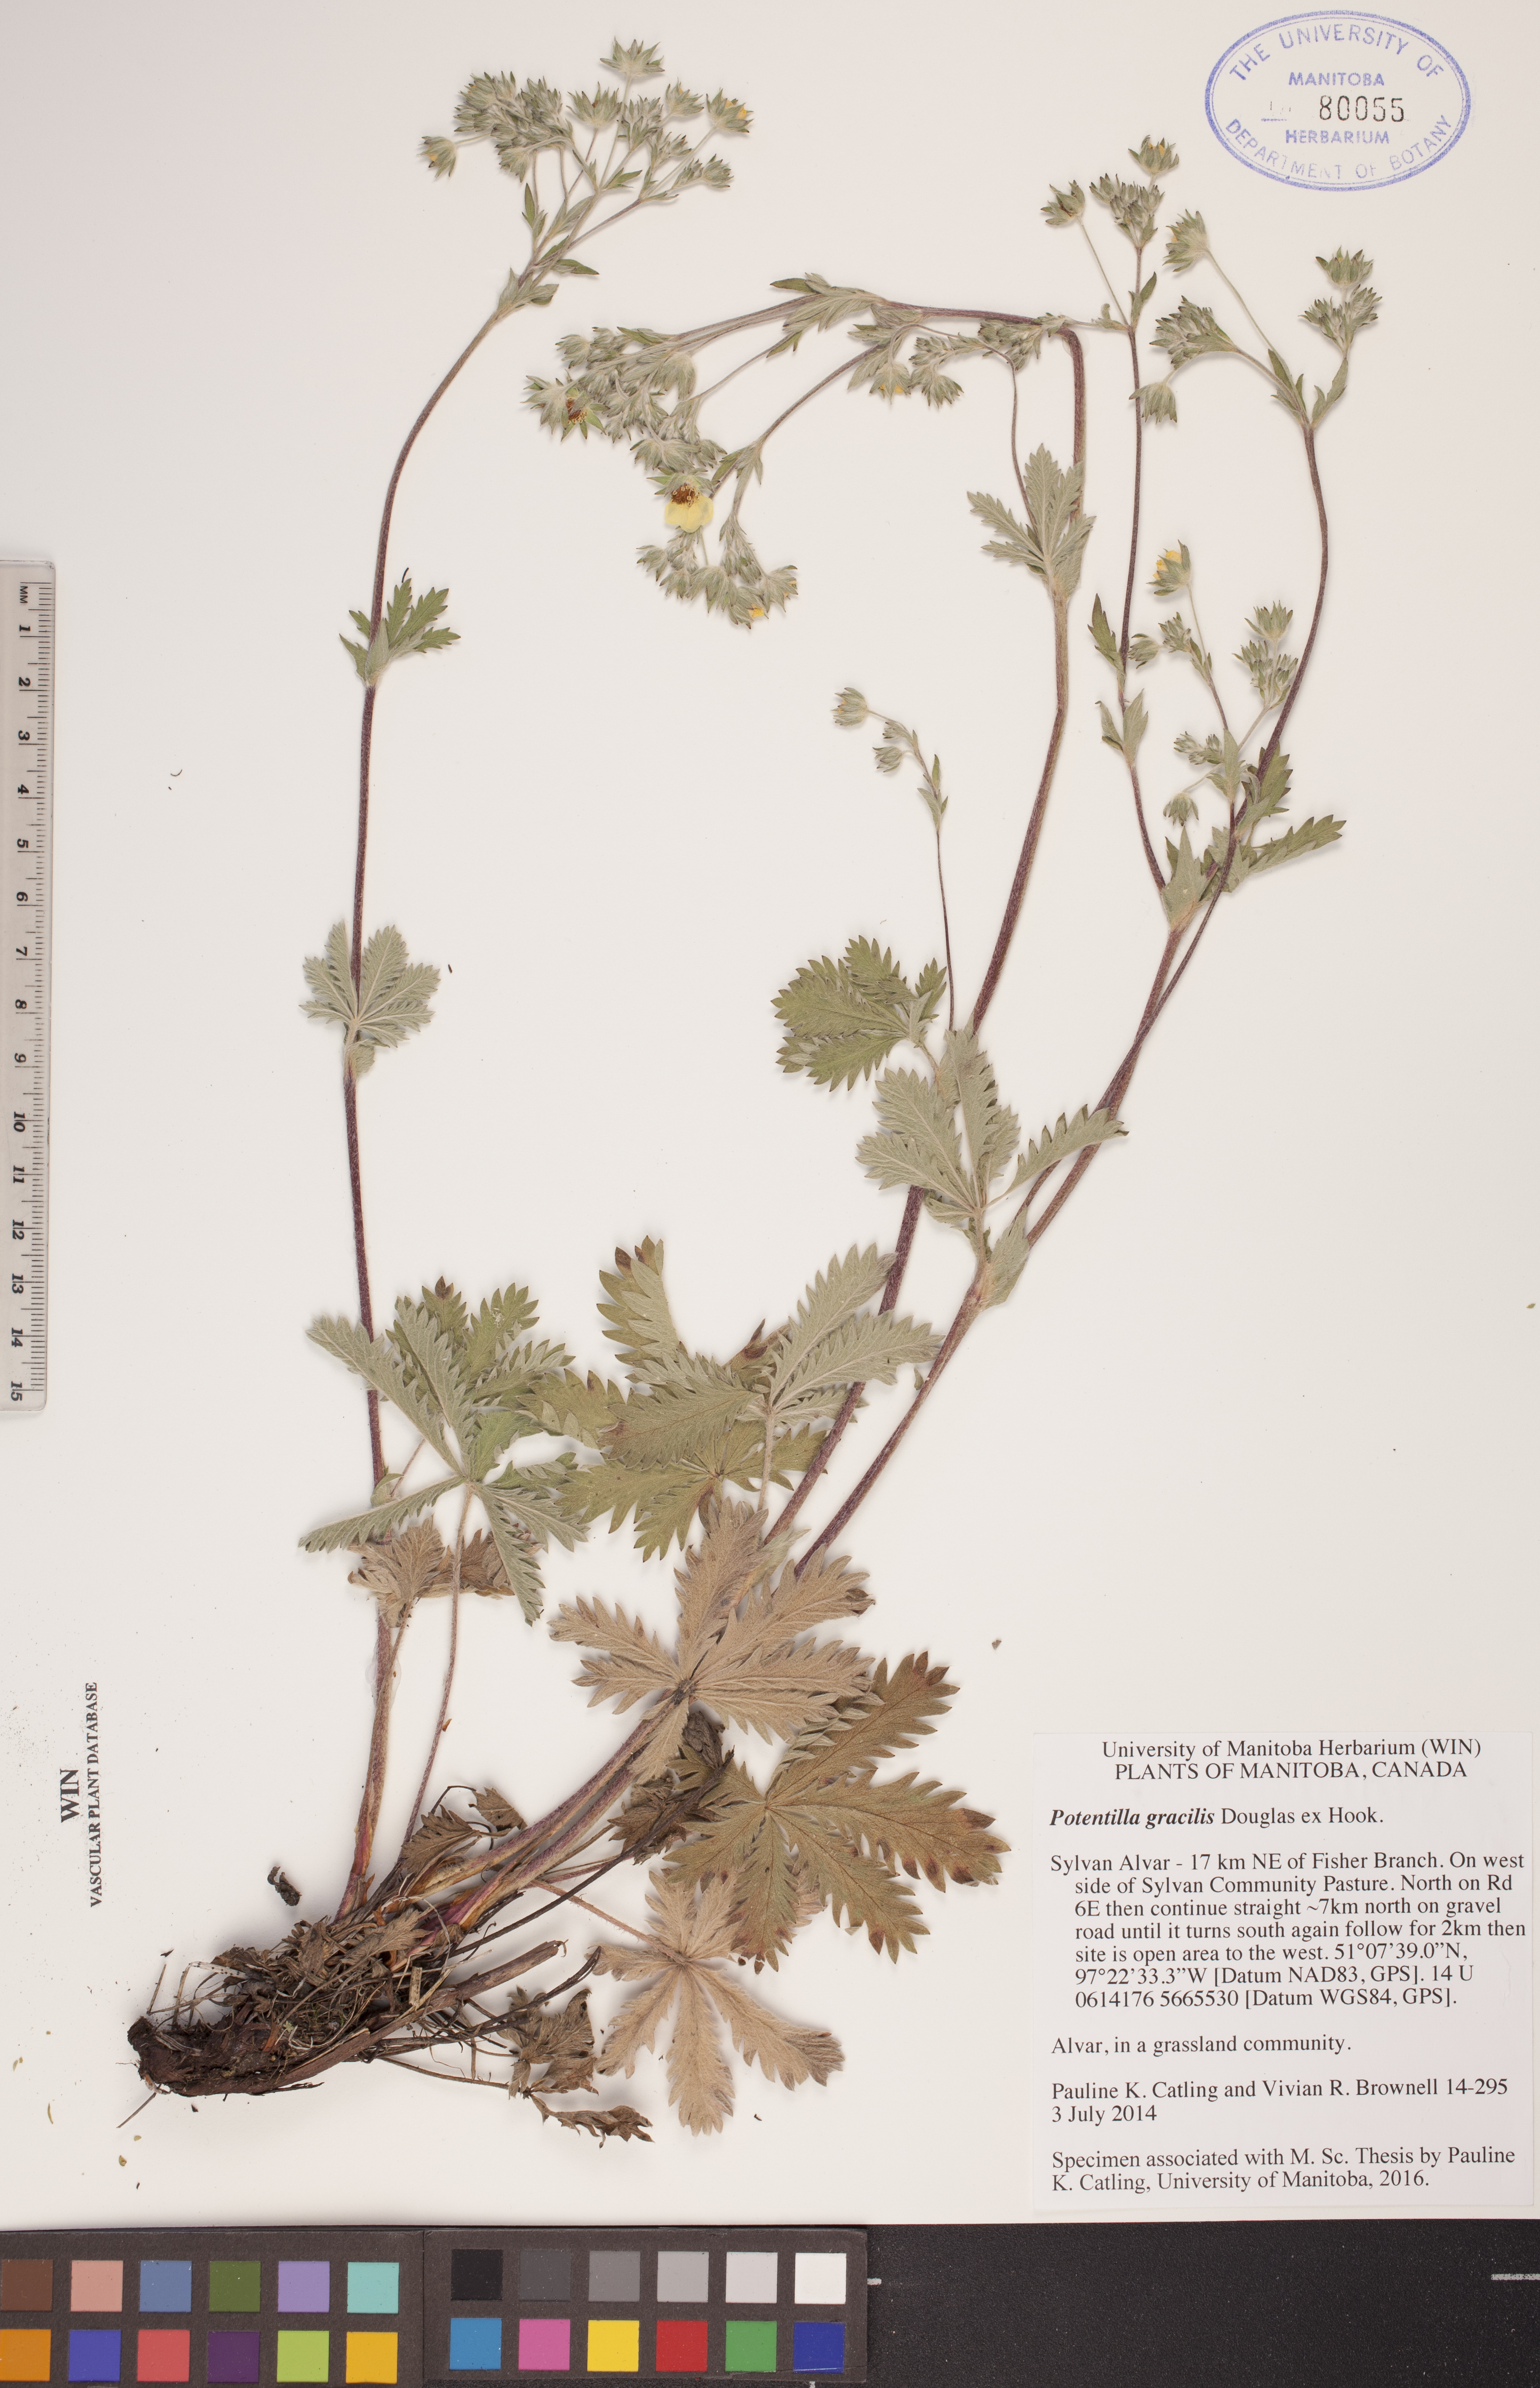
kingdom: Plantae
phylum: Tracheophyta
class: Magnoliopsida
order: Rosales
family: Rosaceae
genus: Potentilla
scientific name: Potentilla gracilis
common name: Graceful cinquefoil
